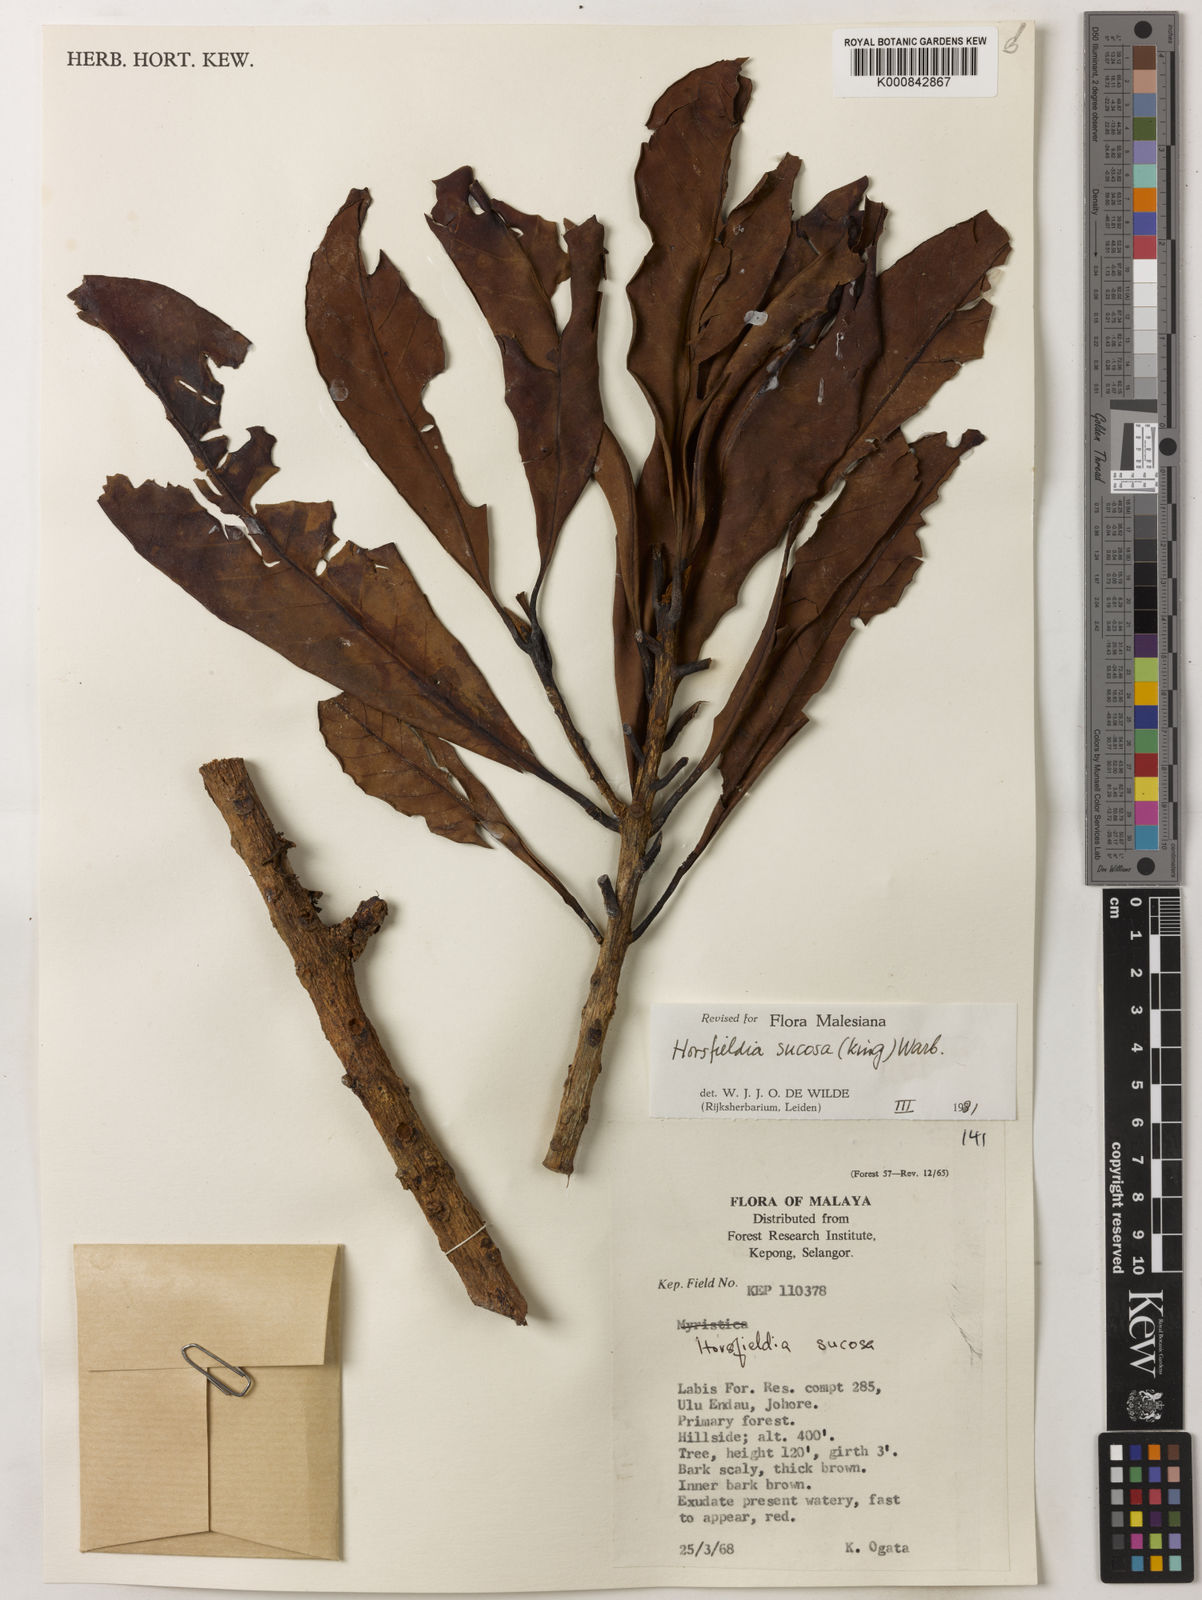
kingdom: Plantae
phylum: Tracheophyta
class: Magnoliopsida
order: Magnoliales
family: Myristicaceae
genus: Horsfieldia
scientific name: Horsfieldia sucosa
